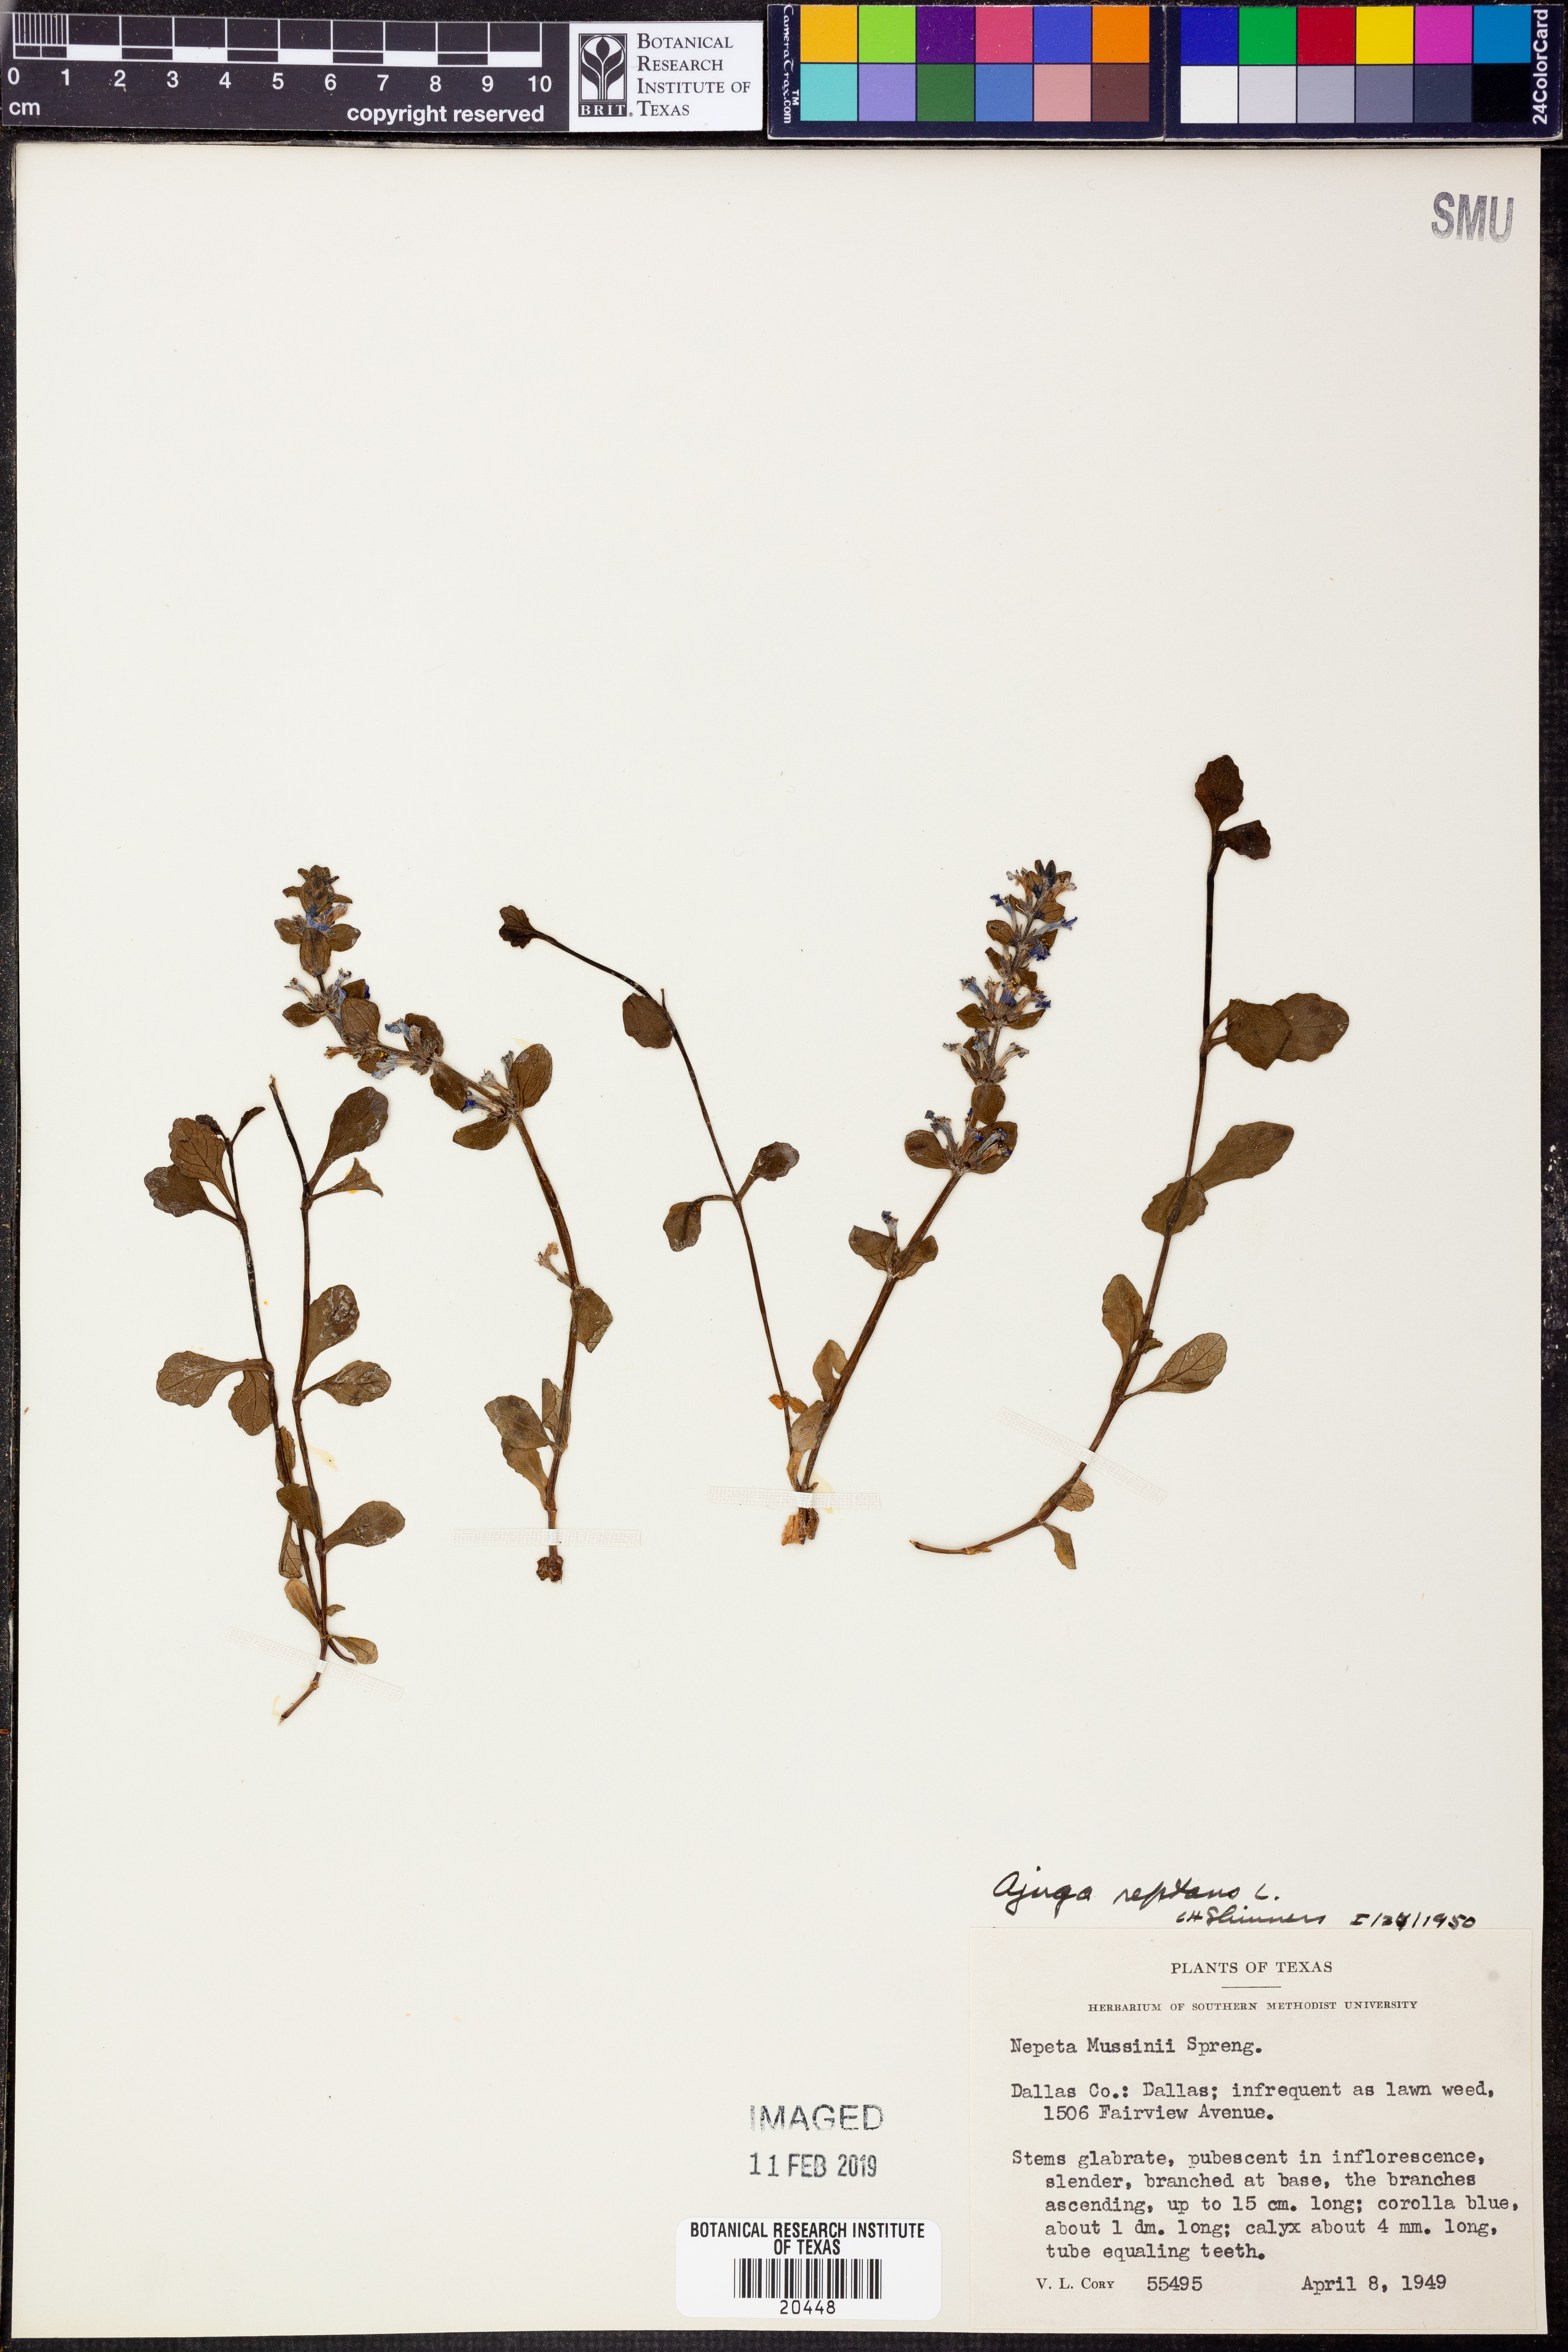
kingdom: Plantae
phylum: Tracheophyta
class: Magnoliopsida
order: Lamiales
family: Lamiaceae
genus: Ajuga
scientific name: Ajuga reptans
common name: Bugle
